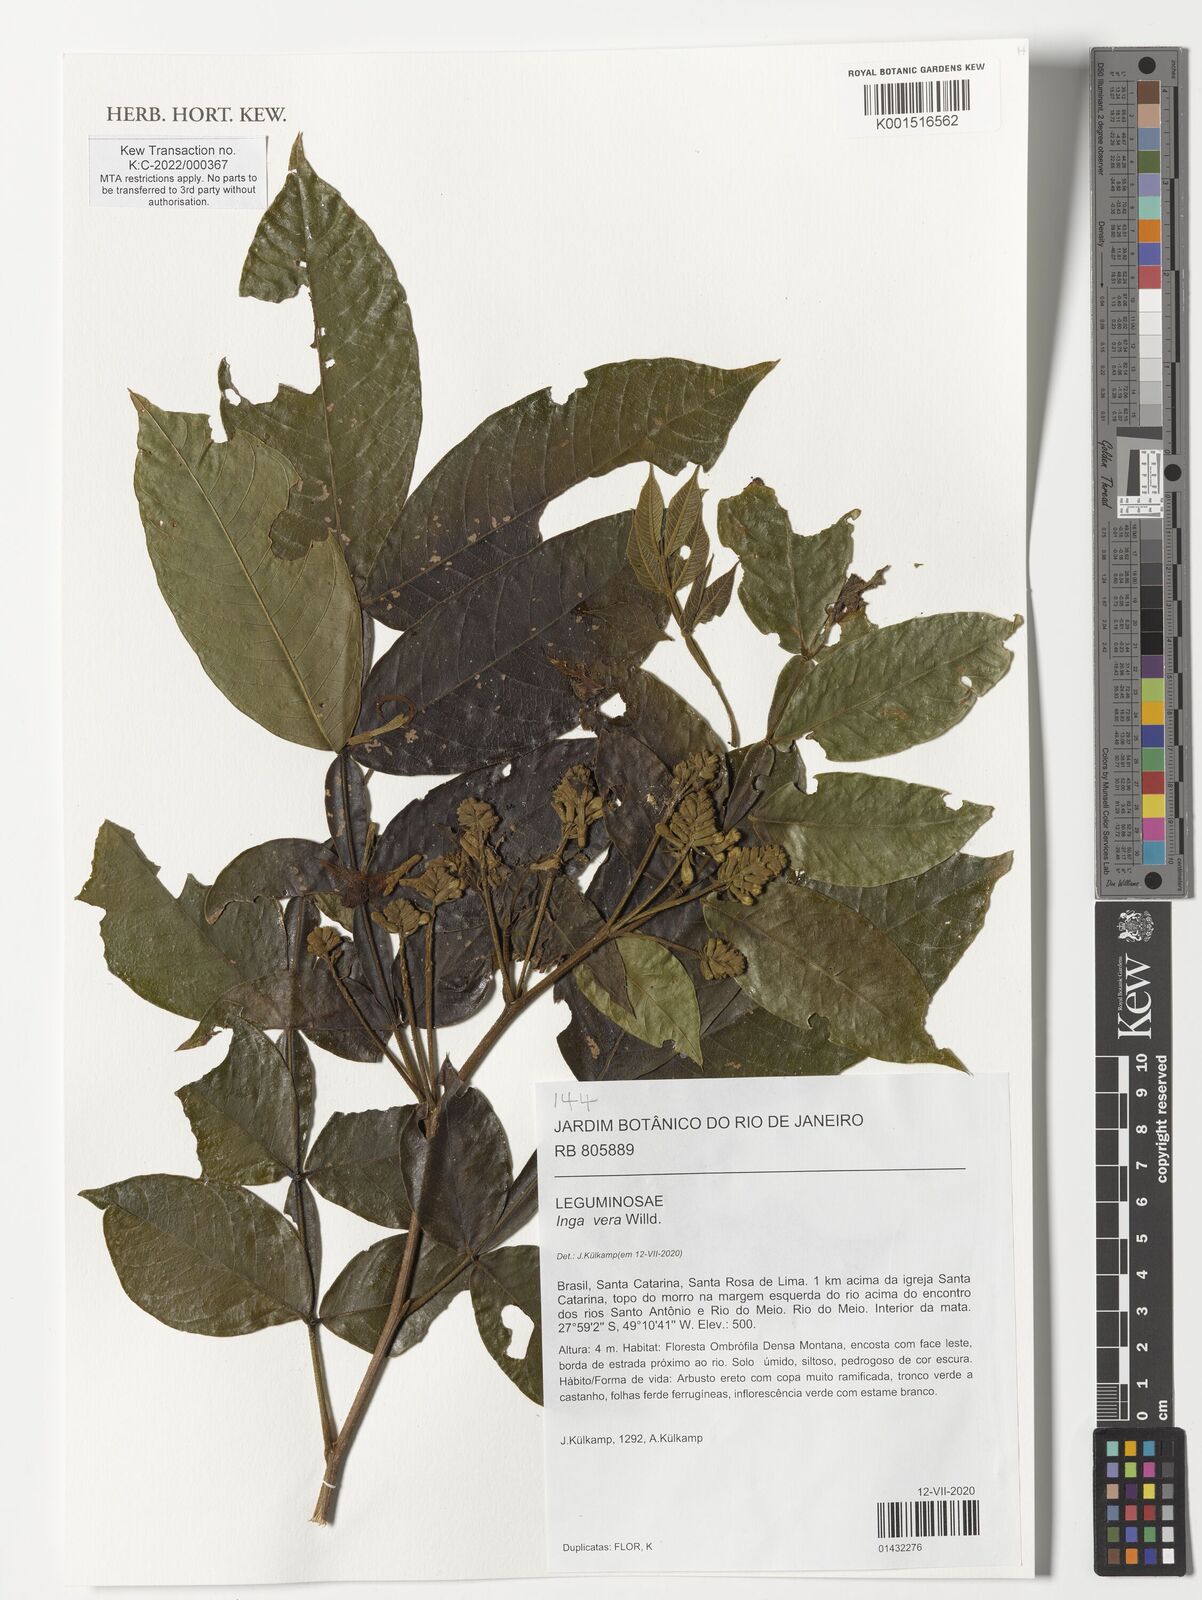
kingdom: Plantae
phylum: Tracheophyta
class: Magnoliopsida
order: Fabales
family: Fabaceae
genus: Inga
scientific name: Inga vera
